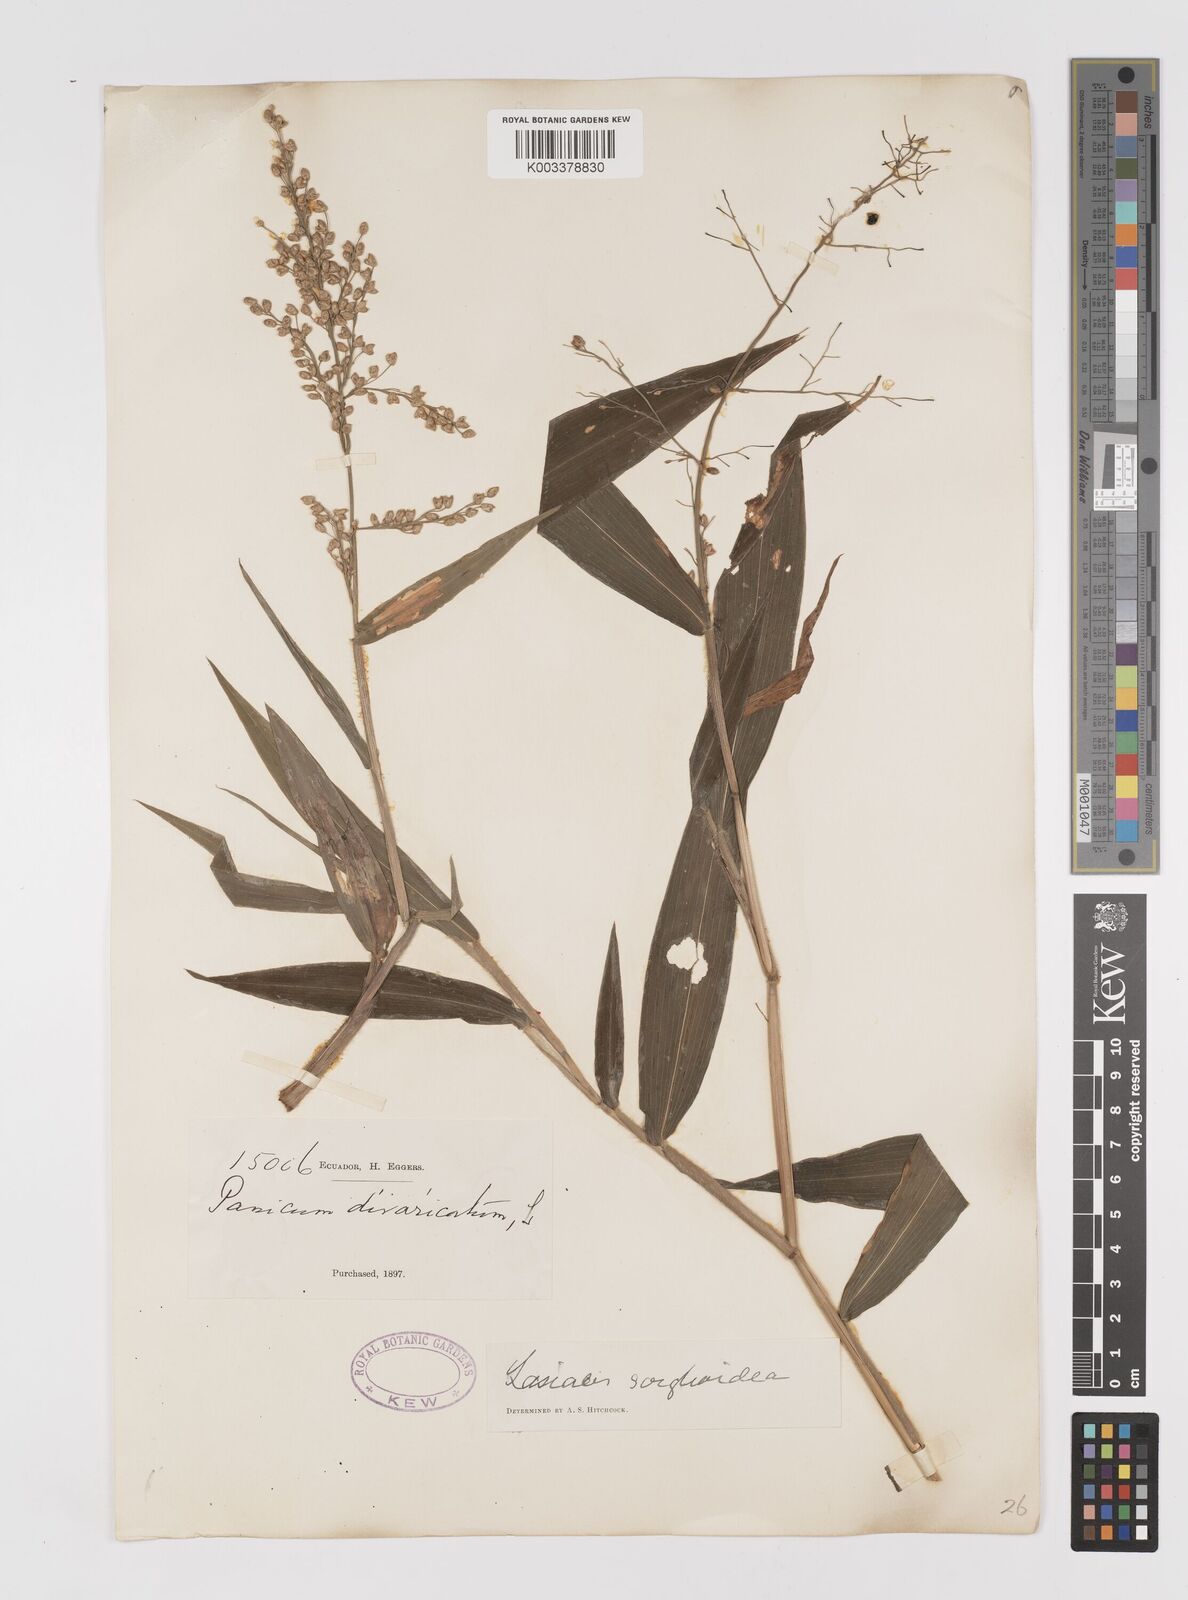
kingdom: Plantae
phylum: Tracheophyta
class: Liliopsida
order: Poales
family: Poaceae
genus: Lasiacis
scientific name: Lasiacis maculata
